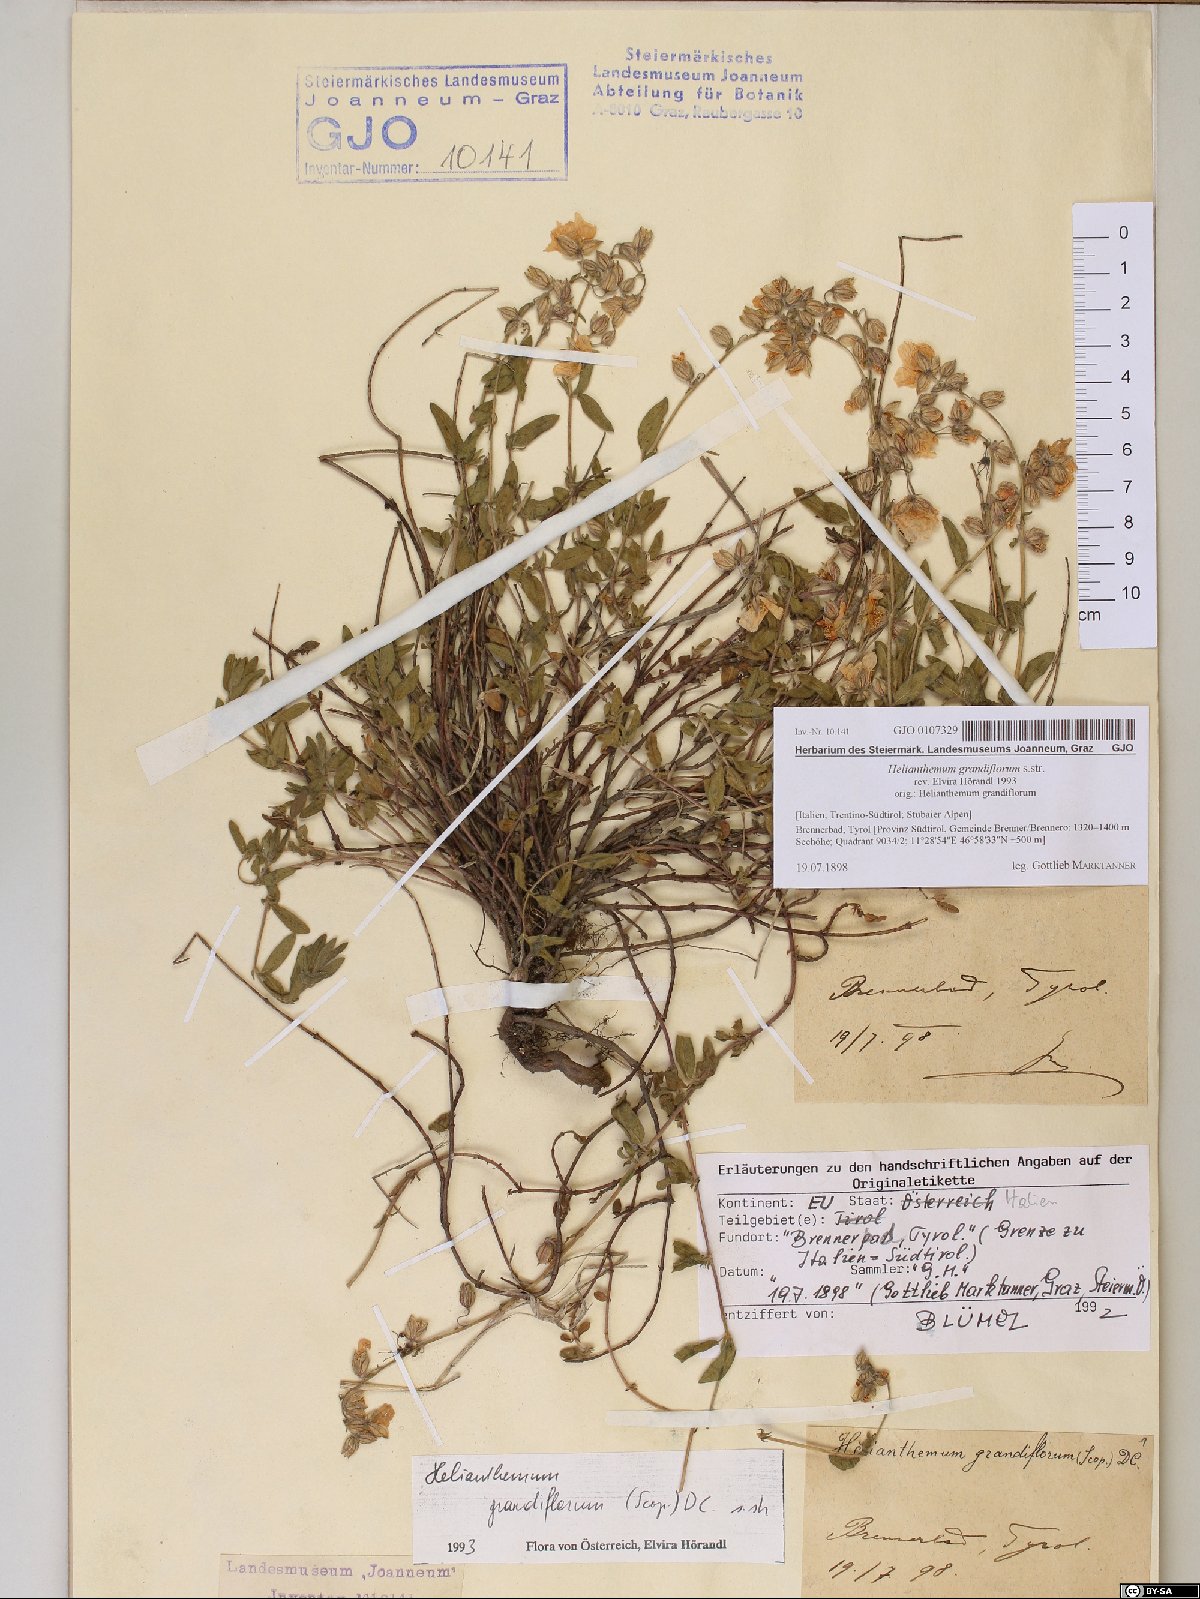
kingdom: Plantae
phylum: Tracheophyta
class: Magnoliopsida
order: Malvales
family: Cistaceae
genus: Helianthemum
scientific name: Helianthemum nummularium
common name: Common rock-rose
